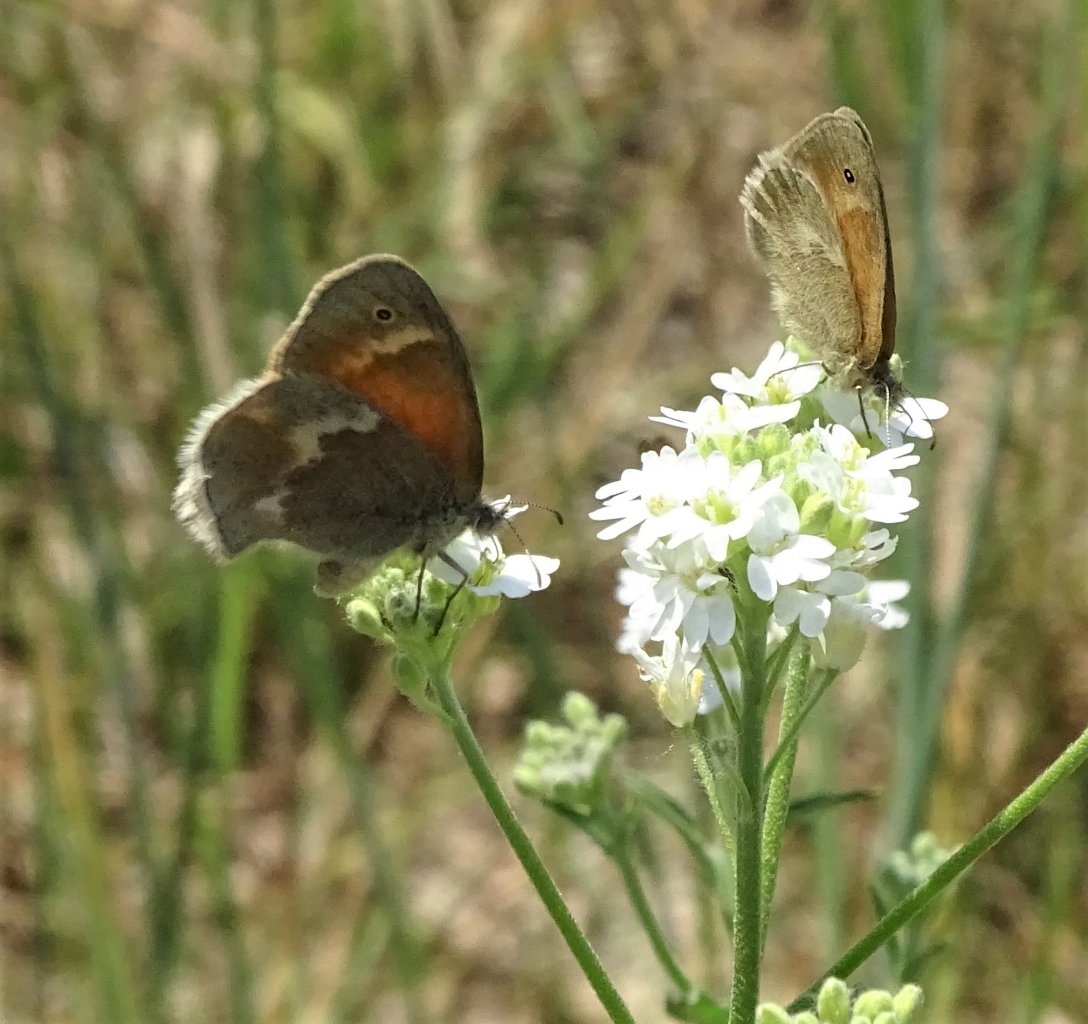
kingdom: Animalia
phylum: Arthropoda
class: Insecta
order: Lepidoptera
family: Nymphalidae
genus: Coenonympha
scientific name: Coenonympha tullia
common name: Large Heath
